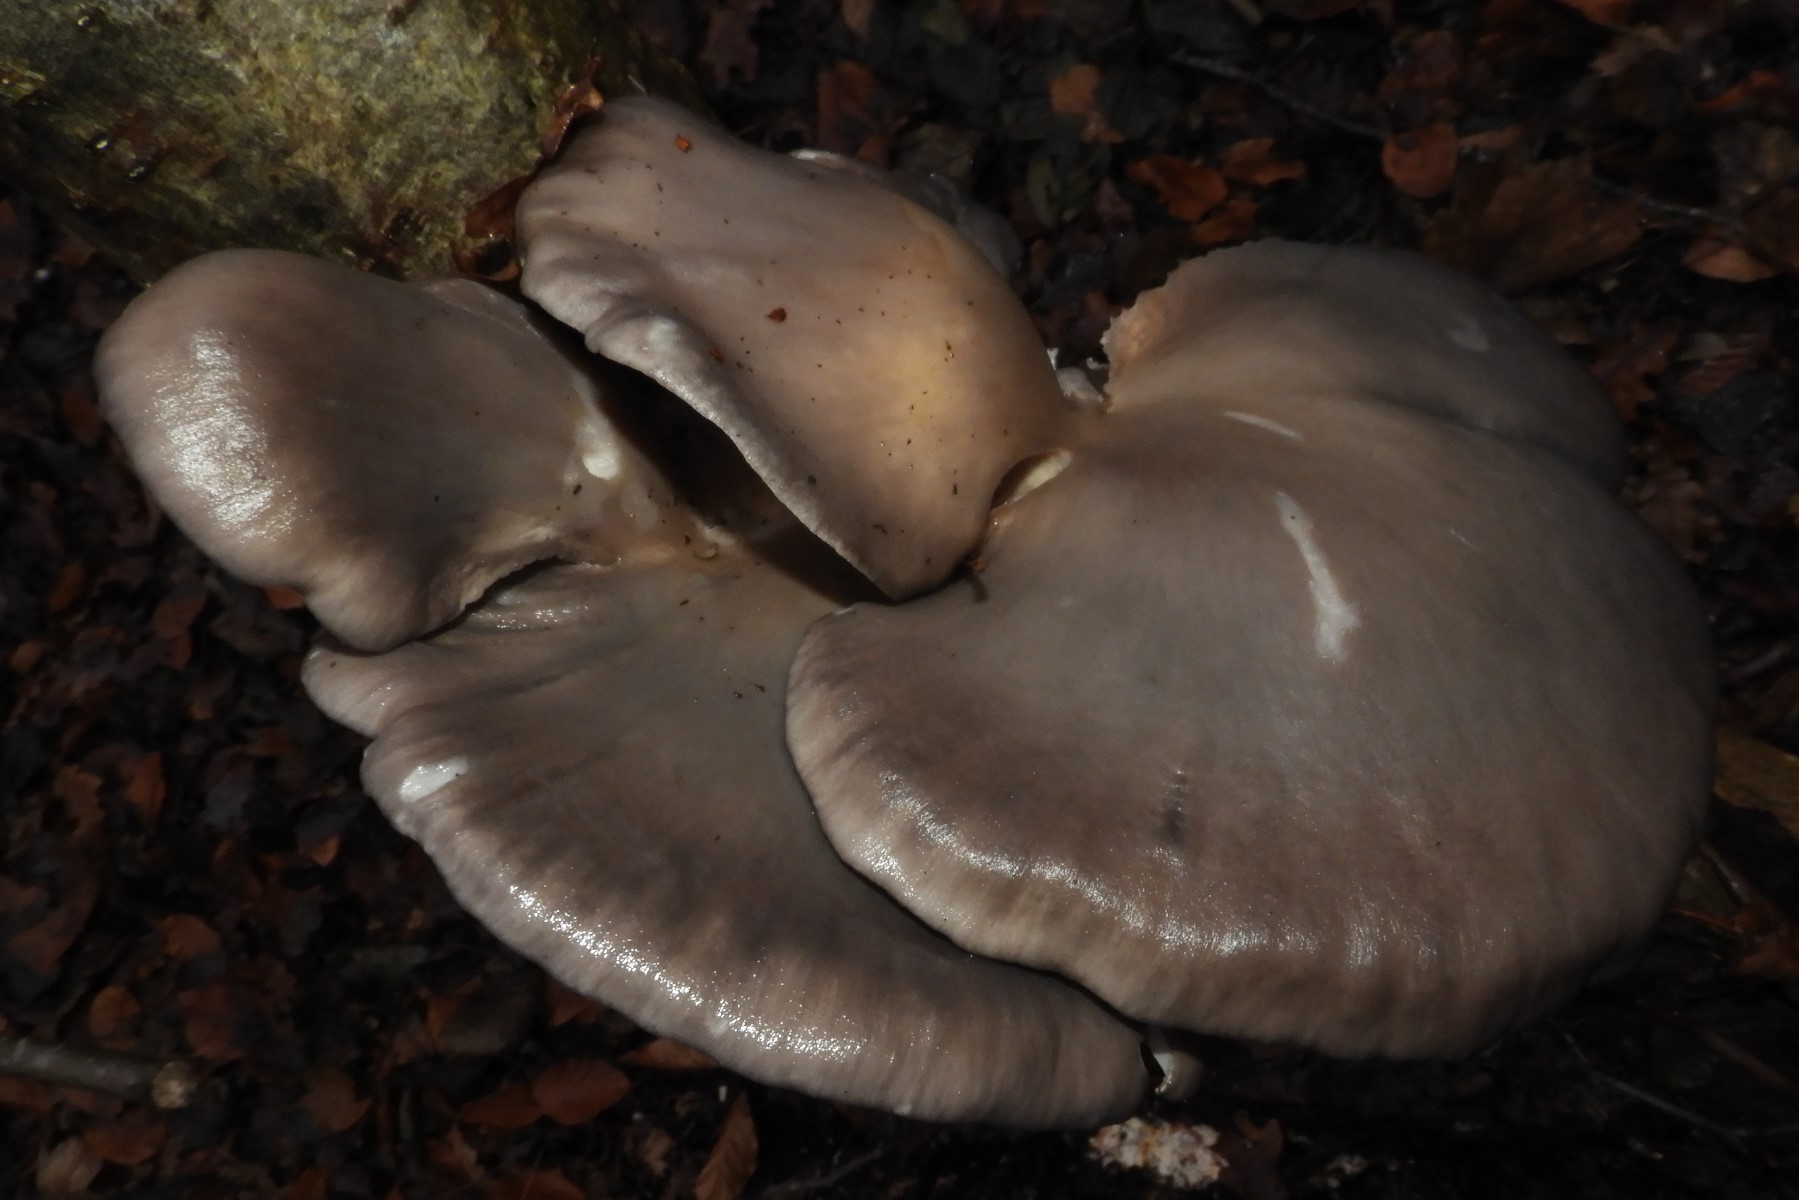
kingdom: Fungi
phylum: Basidiomycota
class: Agaricomycetes
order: Agaricales
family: Pleurotaceae
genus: Pleurotus
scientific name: Pleurotus ostreatus
